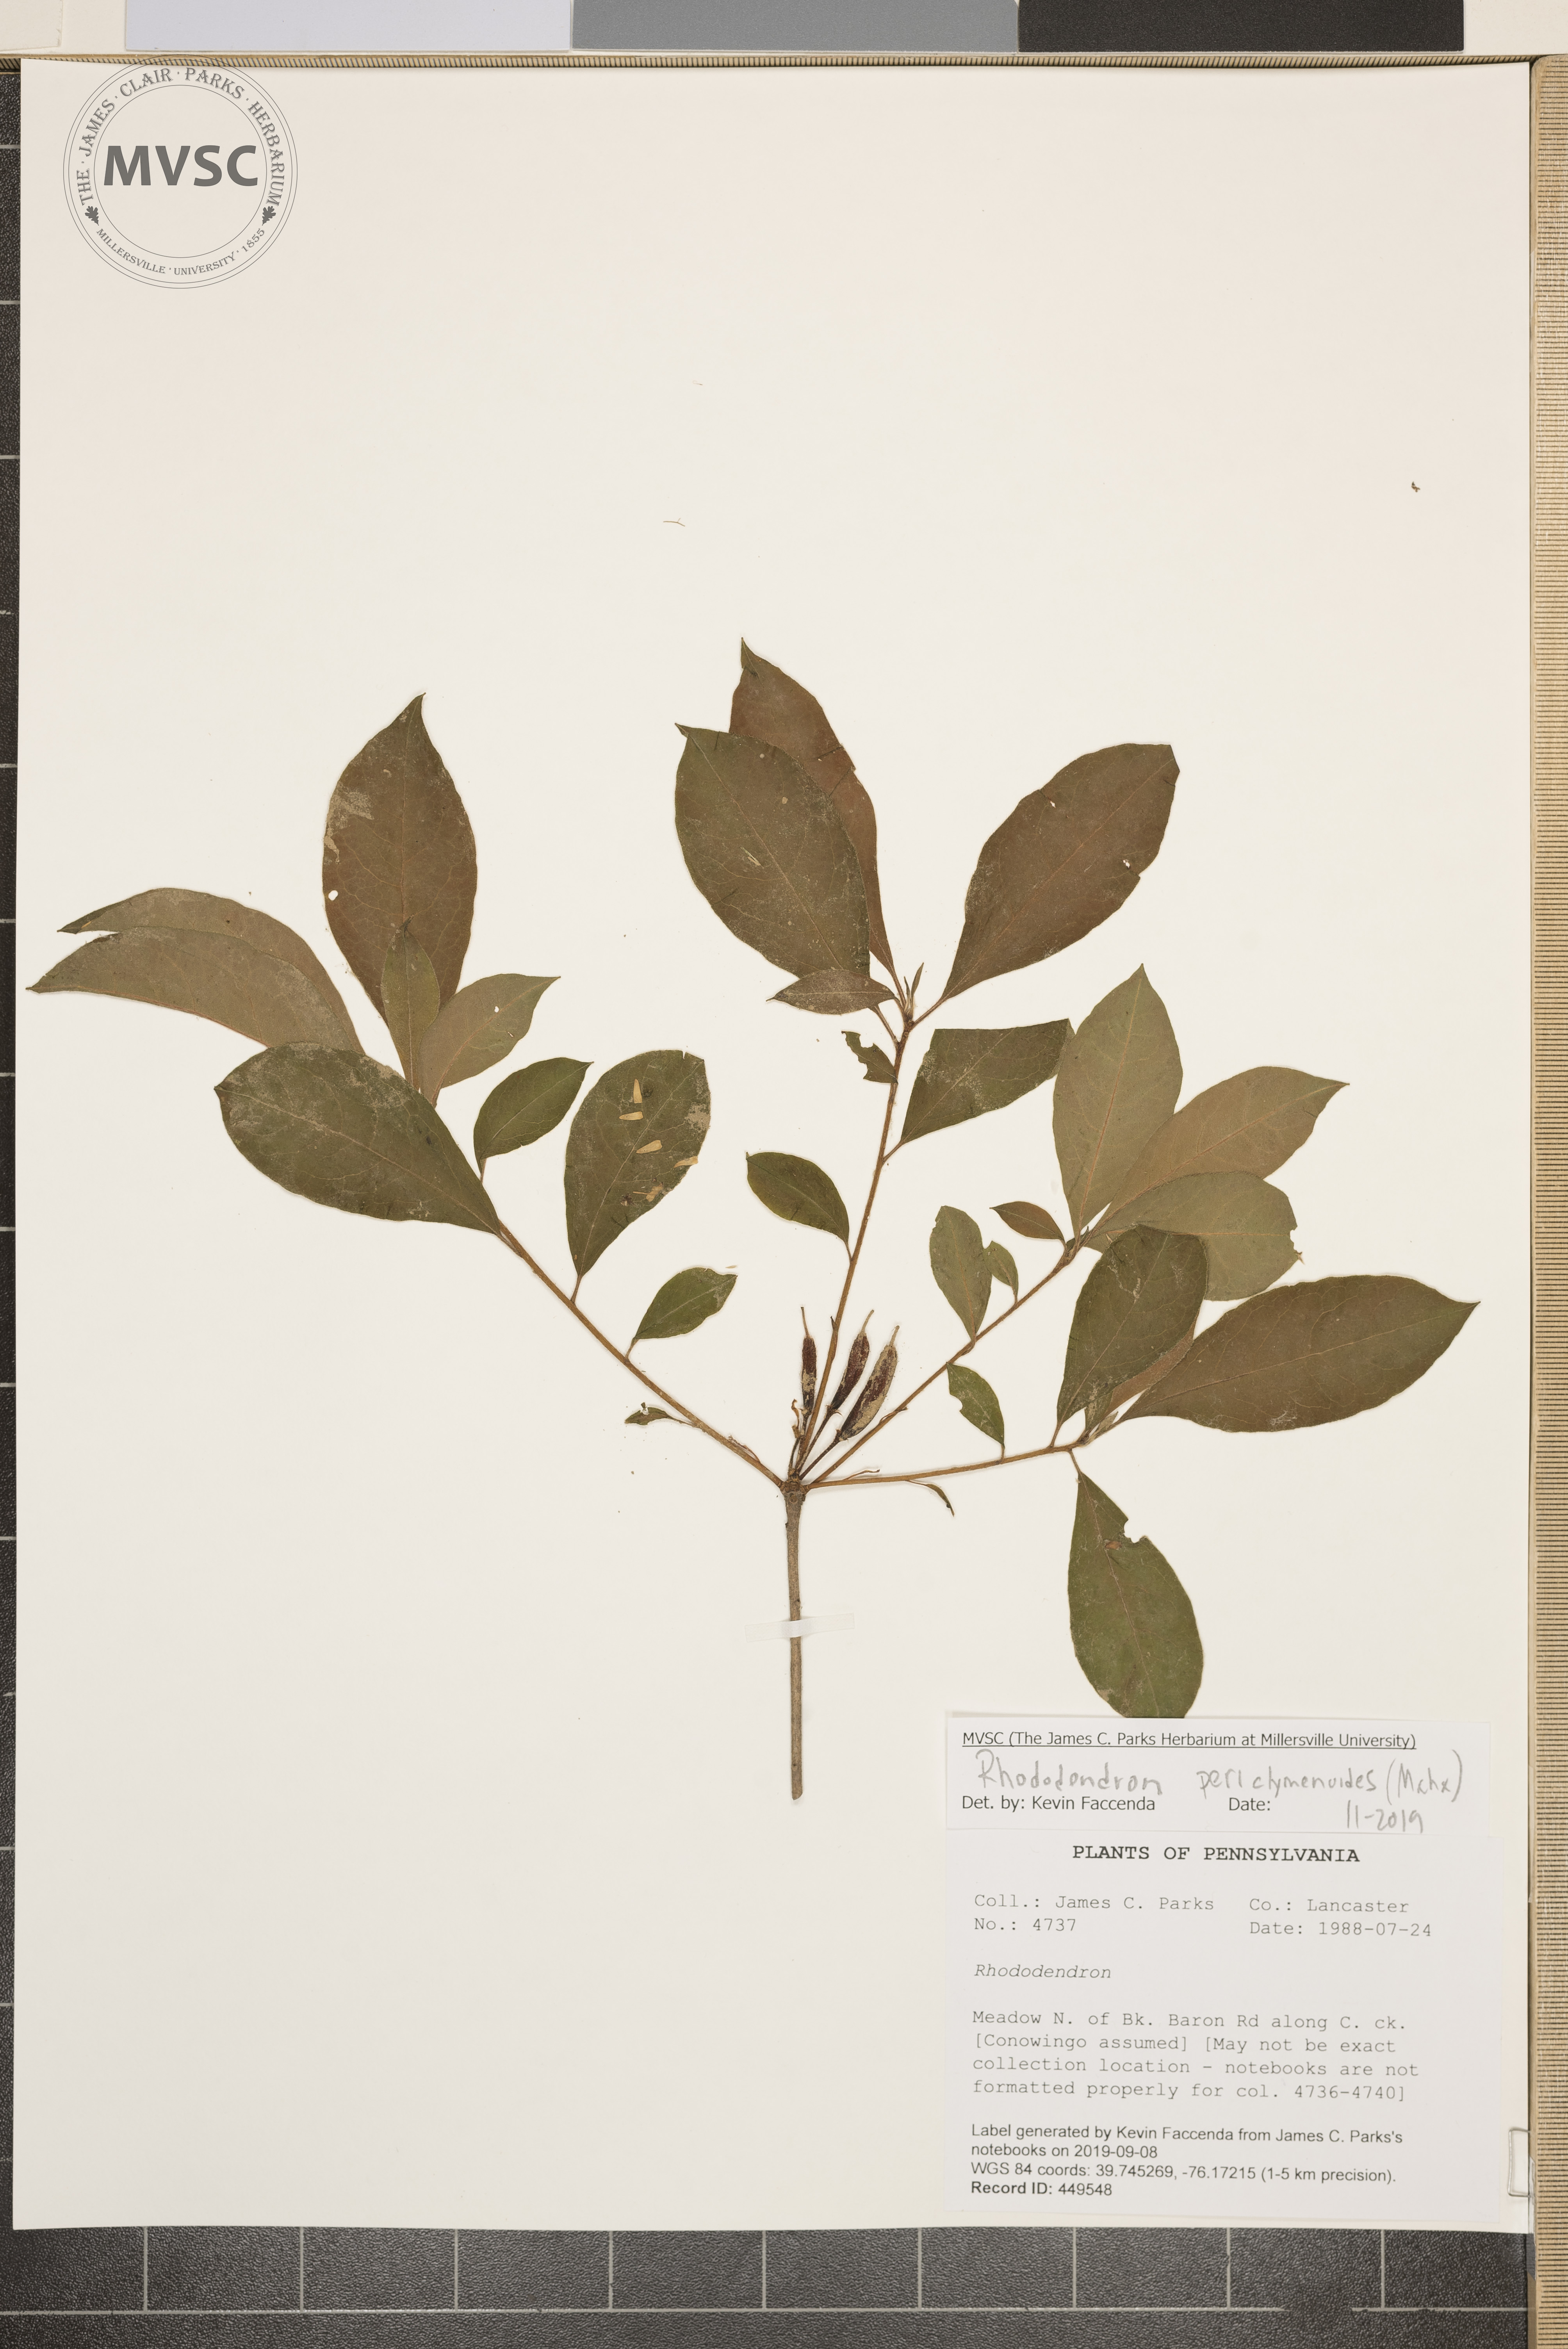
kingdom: Plantae
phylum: Tracheophyta
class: Magnoliopsida
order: Ericales
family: Ericaceae
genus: Rhododendron
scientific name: Rhododendron
